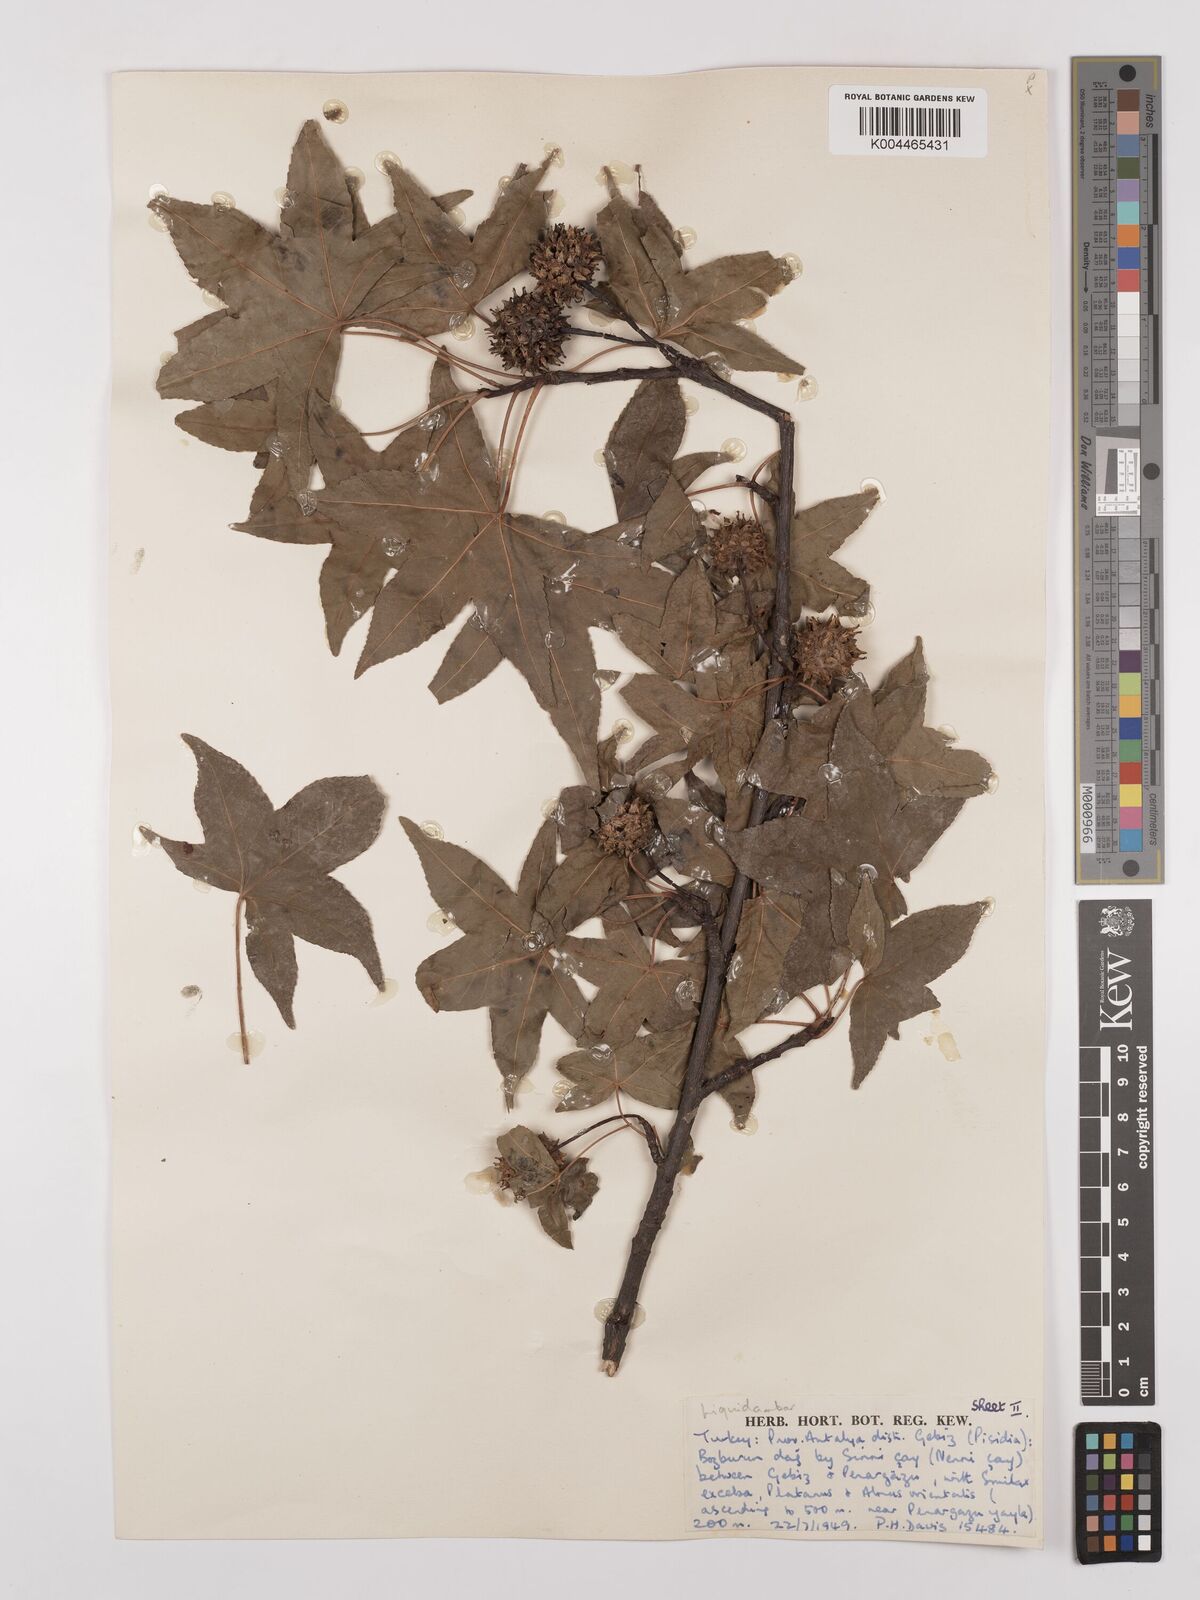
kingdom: Plantae
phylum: Tracheophyta
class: Magnoliopsida
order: Saxifragales
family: Altingiaceae
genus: Liquidambar
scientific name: Liquidambar orientalis
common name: Oriental sweetgum
